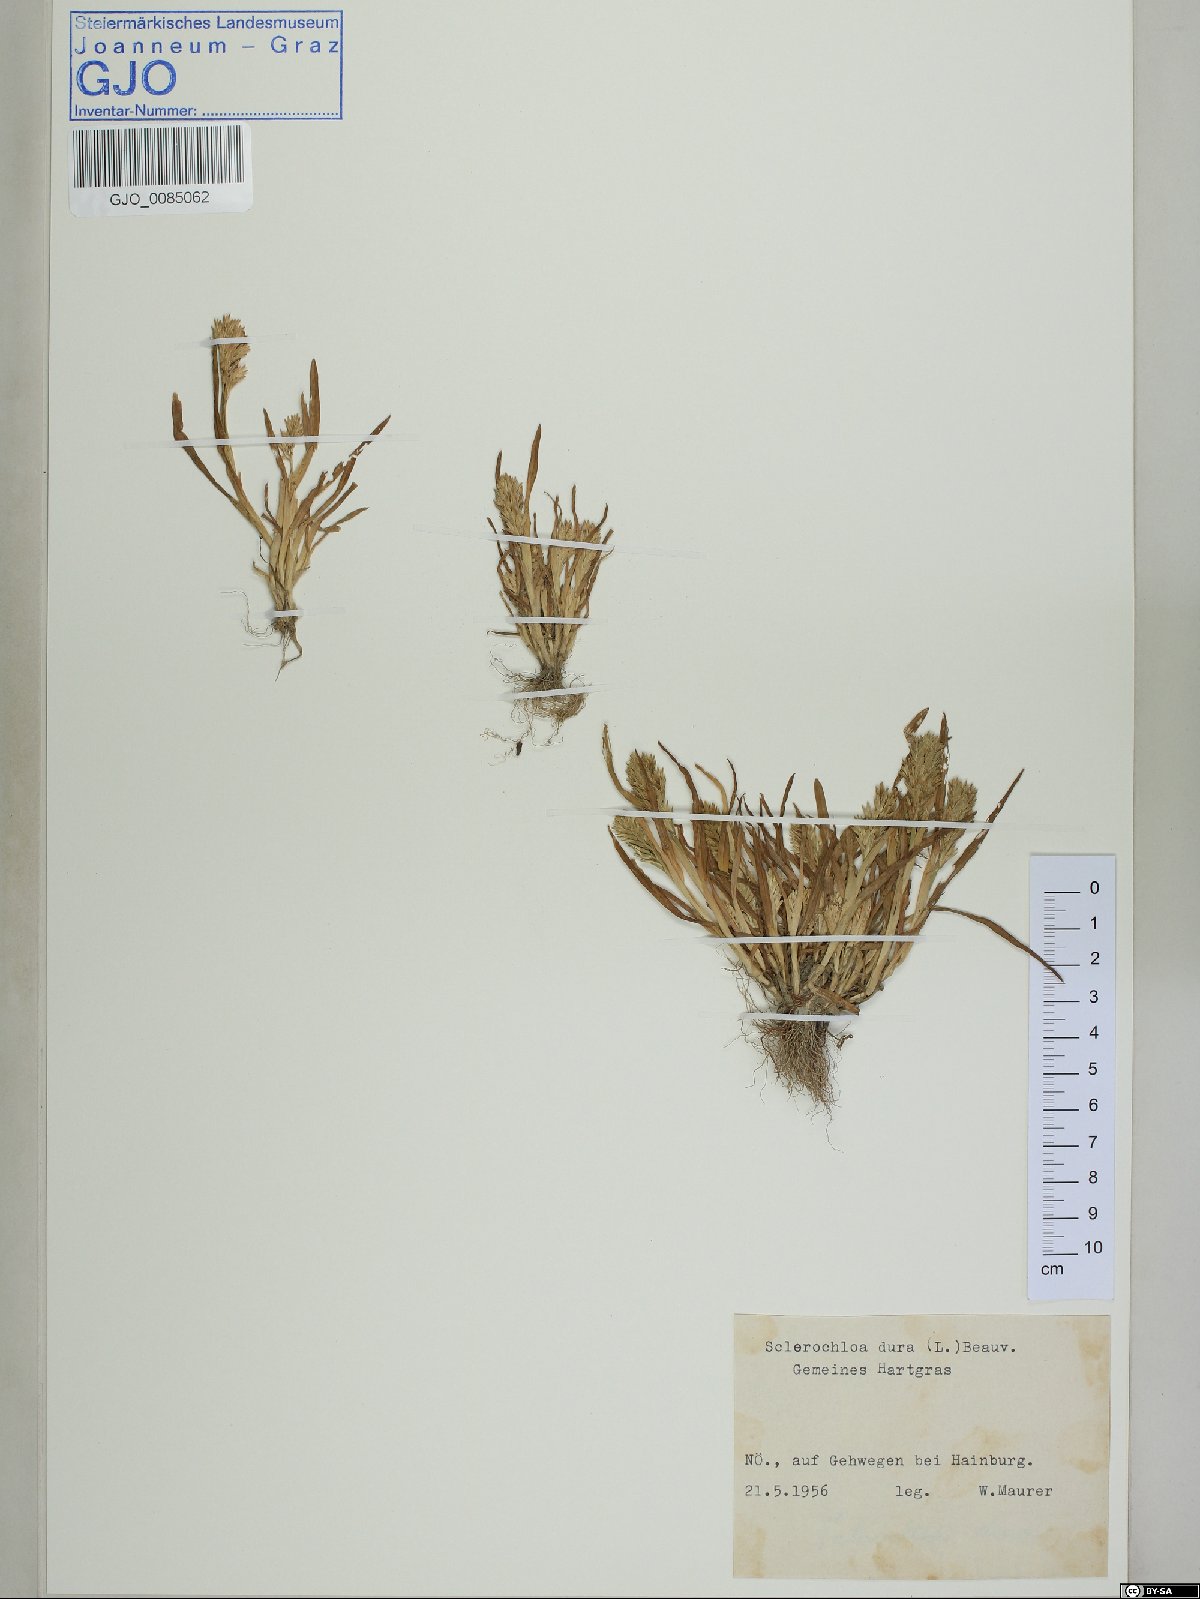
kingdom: Plantae
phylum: Tracheophyta
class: Liliopsida
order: Poales
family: Poaceae
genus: Sclerochloa
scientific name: Sclerochloa dura
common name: Common hardgrass
